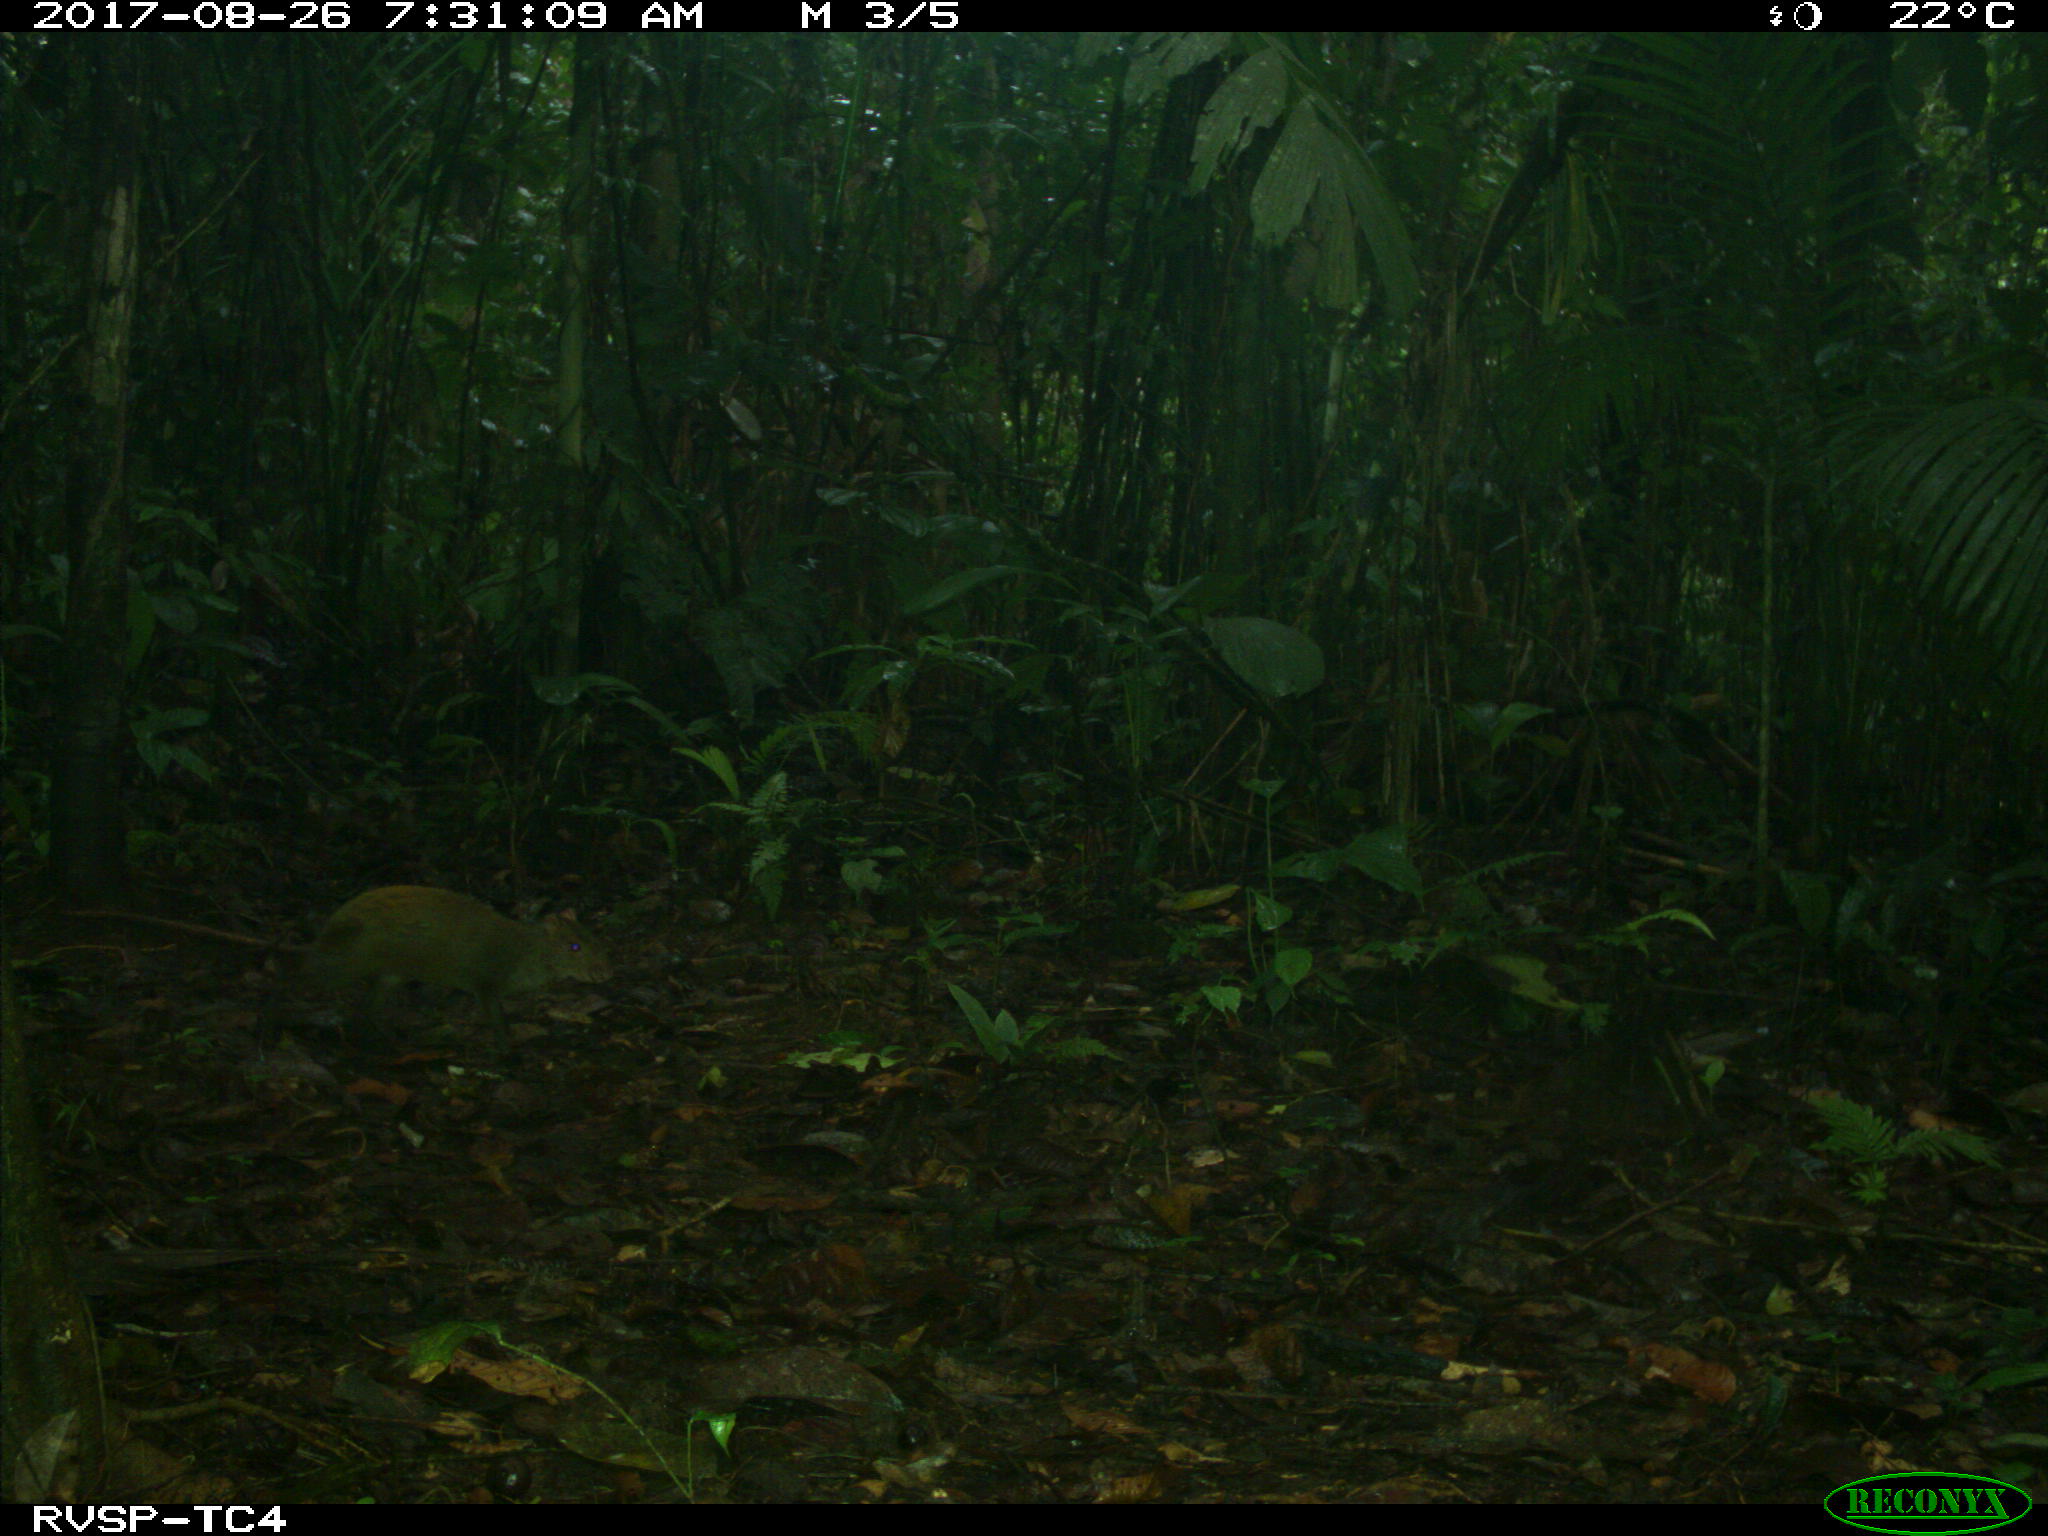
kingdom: Animalia
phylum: Chordata
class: Mammalia
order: Rodentia
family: Dasyproctidae
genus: Dasyprocta
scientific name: Dasyprocta punctata
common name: Central american agouti
